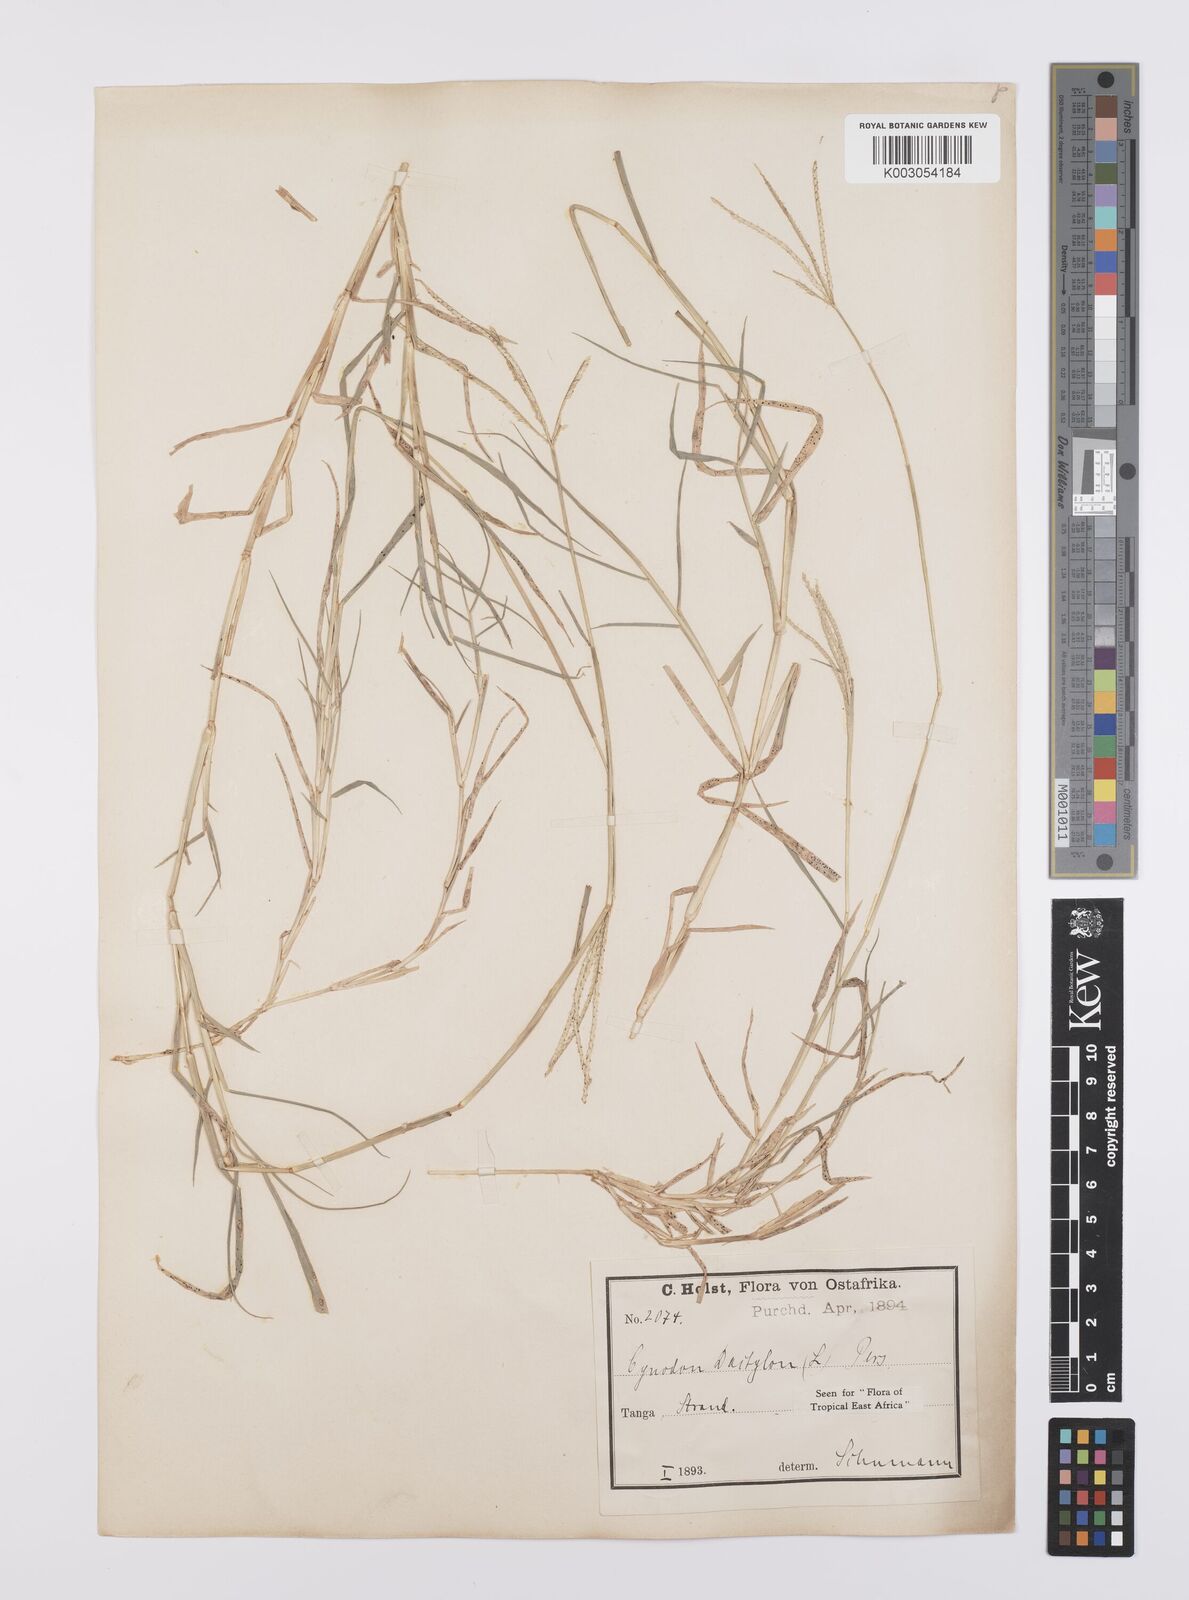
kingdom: Plantae
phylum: Tracheophyta
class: Liliopsida
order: Poales
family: Poaceae
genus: Cynodon
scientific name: Cynodon dactylon
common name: Bermuda grass
